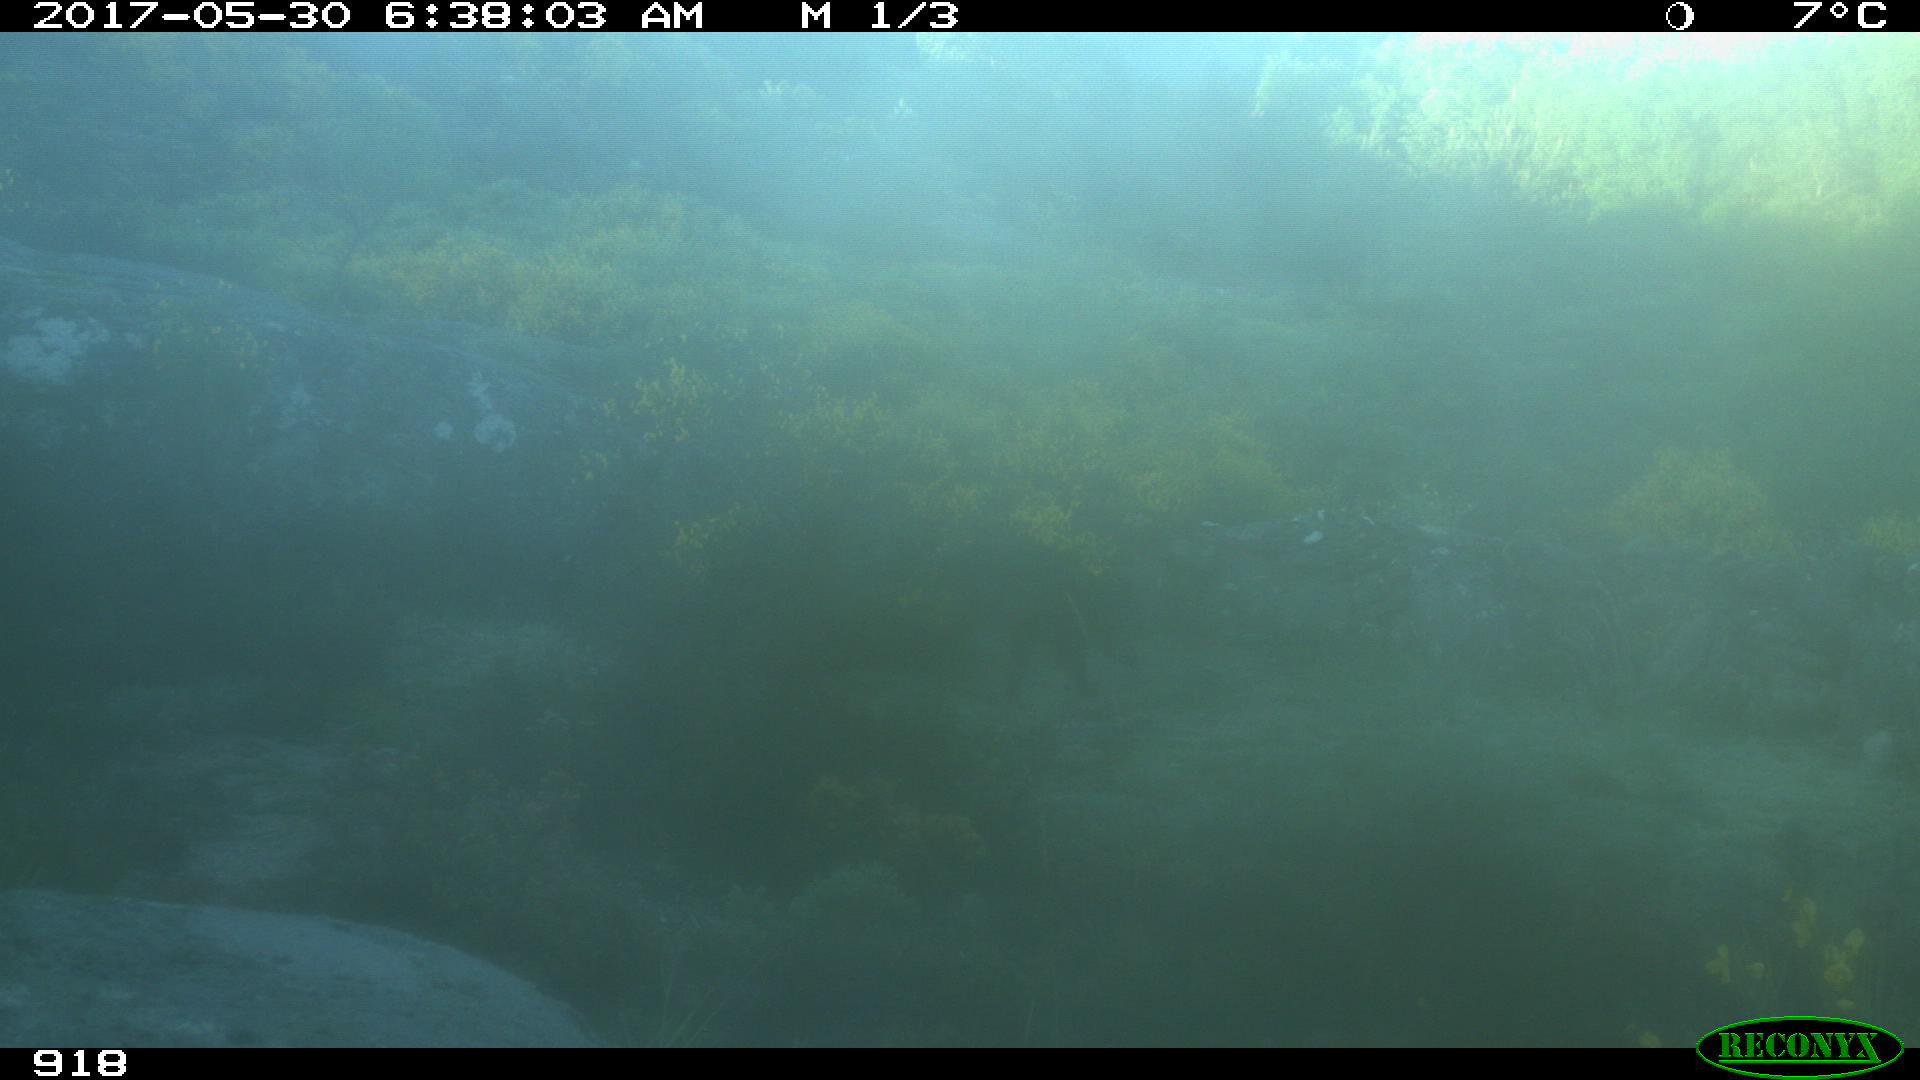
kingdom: Animalia
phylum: Chordata
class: Mammalia
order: Artiodactyla
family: Suidae
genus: Sus
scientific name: Sus scrofa
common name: Wild boar
